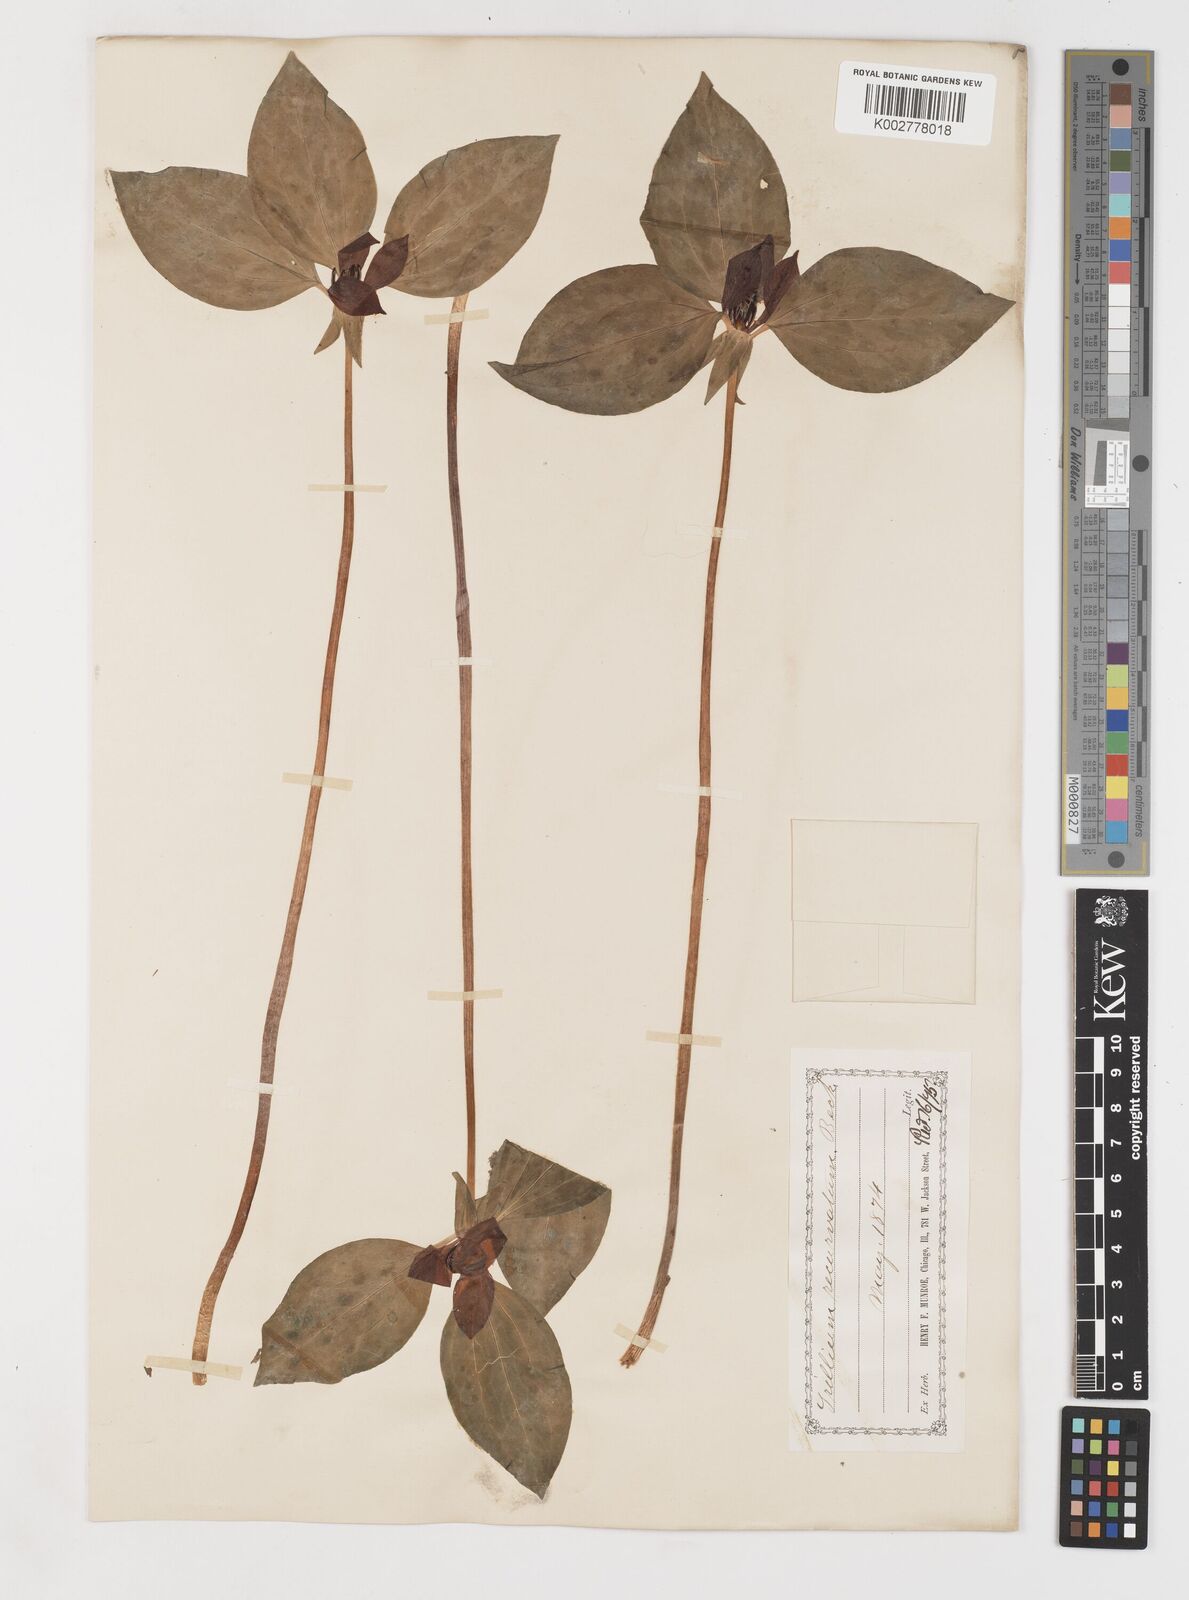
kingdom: Plantae
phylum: Tracheophyta
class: Liliopsida
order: Liliales
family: Melanthiaceae
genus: Trillium
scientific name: Trillium recurvatum
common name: Bloody butcher
